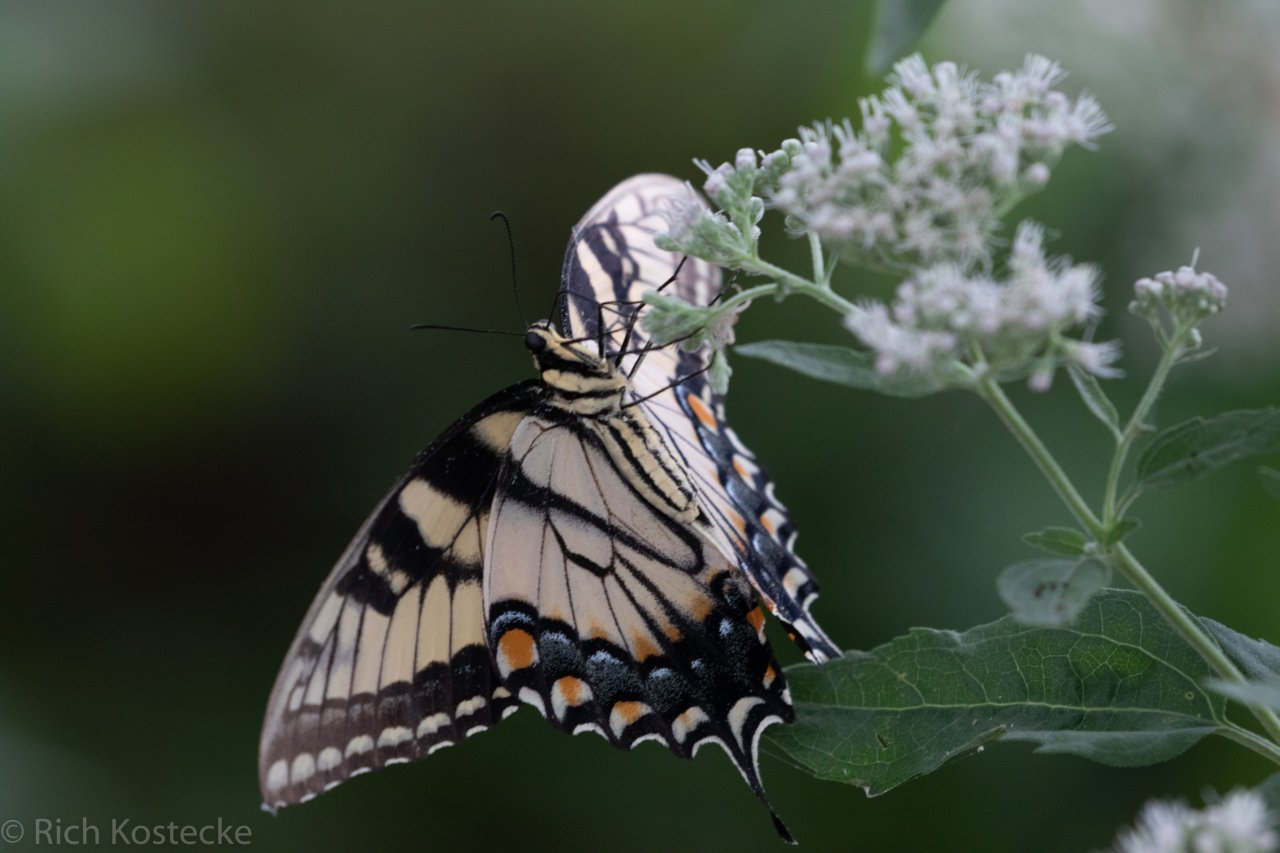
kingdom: Animalia
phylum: Arthropoda
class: Insecta
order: Lepidoptera
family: Papilionidae
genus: Pterourus
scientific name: Pterourus glaucus
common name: Eastern Tiger Swallowtail
